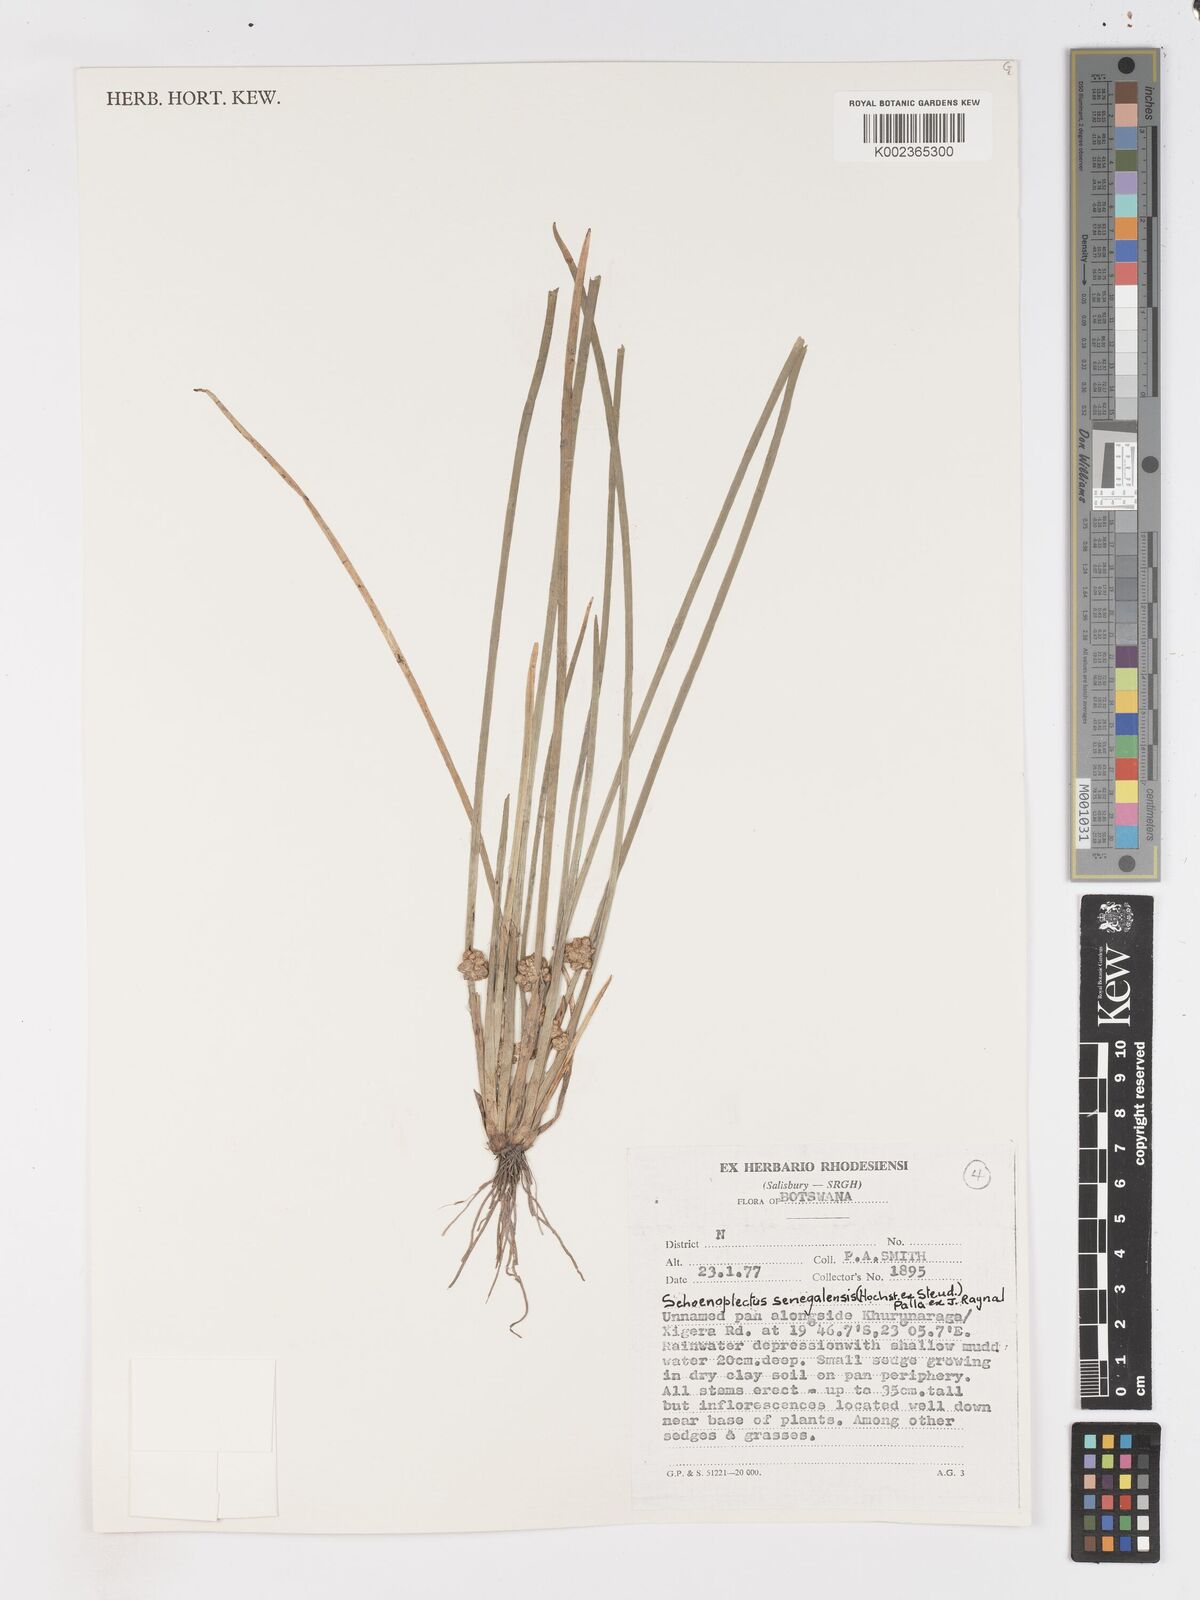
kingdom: Plantae
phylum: Tracheophyta
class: Liliopsida
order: Poales
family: Cyperaceae
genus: Schoenoplectiella
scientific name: Schoenoplectiella senegalensis
